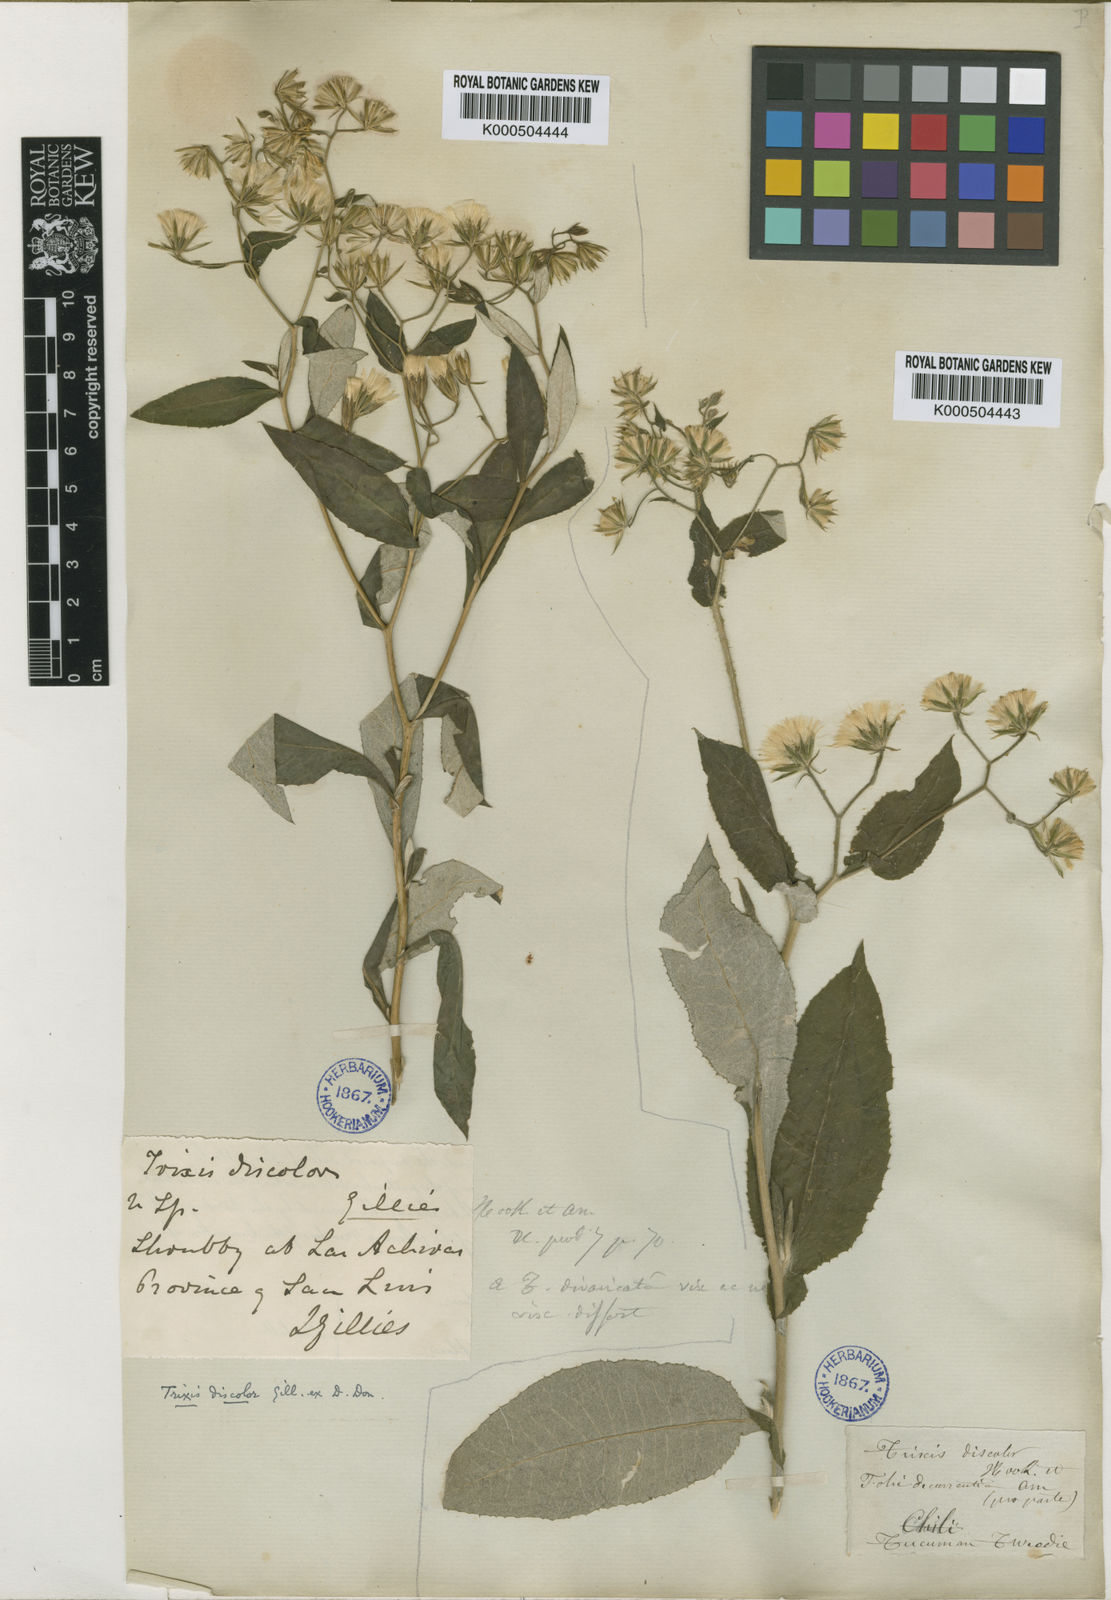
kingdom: Plantae
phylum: Tracheophyta
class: Magnoliopsida
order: Asterales
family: Asteraceae
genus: Trixis
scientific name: Trixis divaricata
